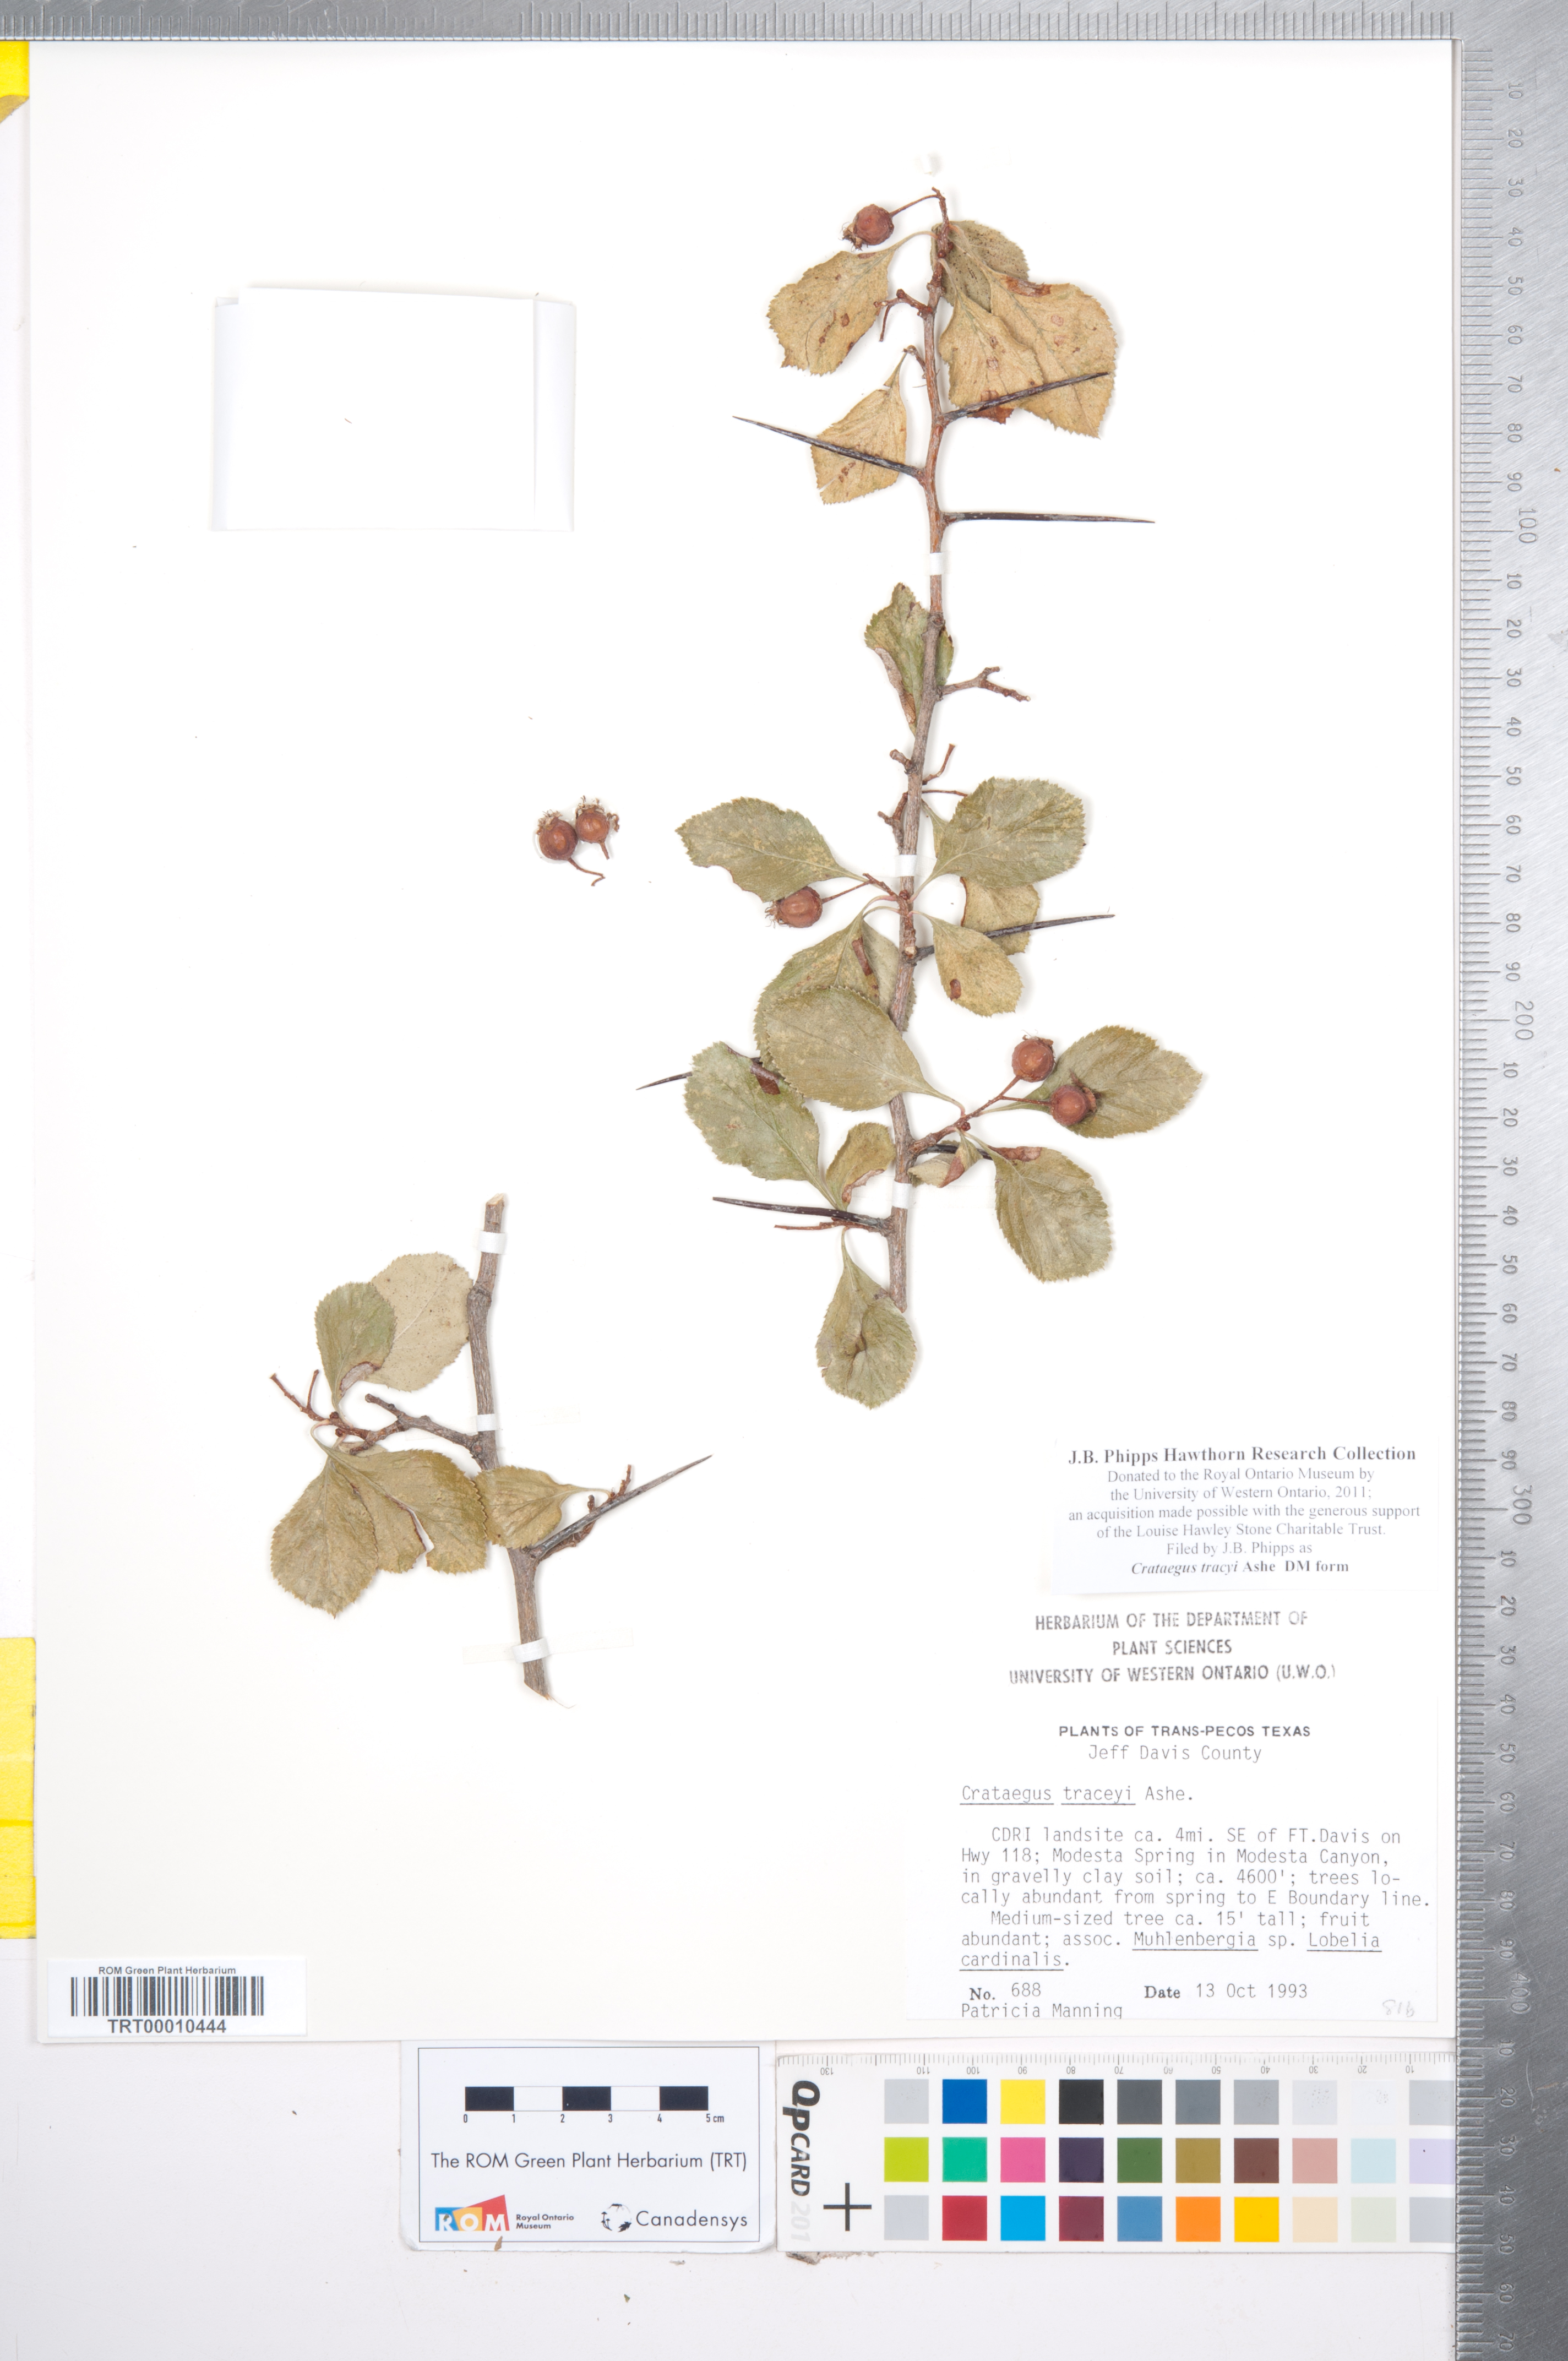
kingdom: Plantae
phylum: Tracheophyta
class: Magnoliopsida
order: Rosales
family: Rosaceae
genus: Crataegus
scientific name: Crataegus tracyi
